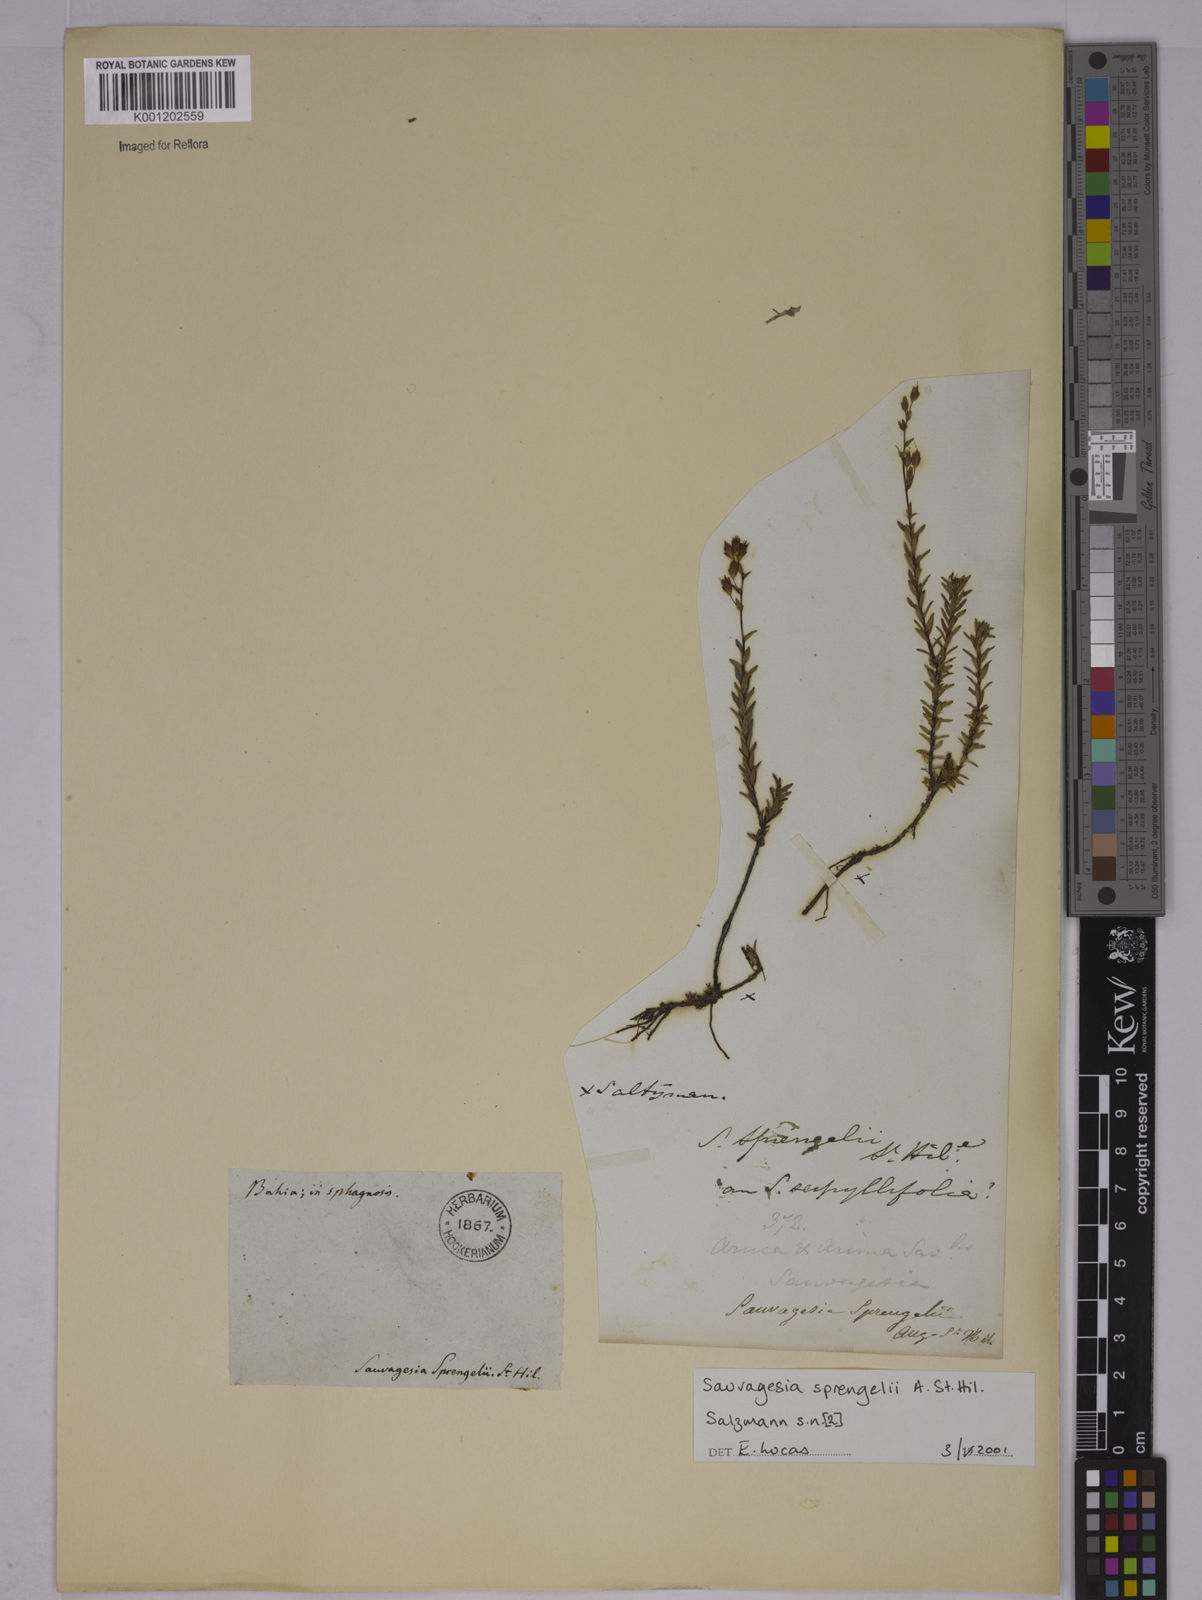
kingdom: Plantae
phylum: Tracheophyta
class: Magnoliopsida
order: Malpighiales
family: Ochnaceae
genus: Sauvagesia
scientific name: Sauvagesia sprengelii
